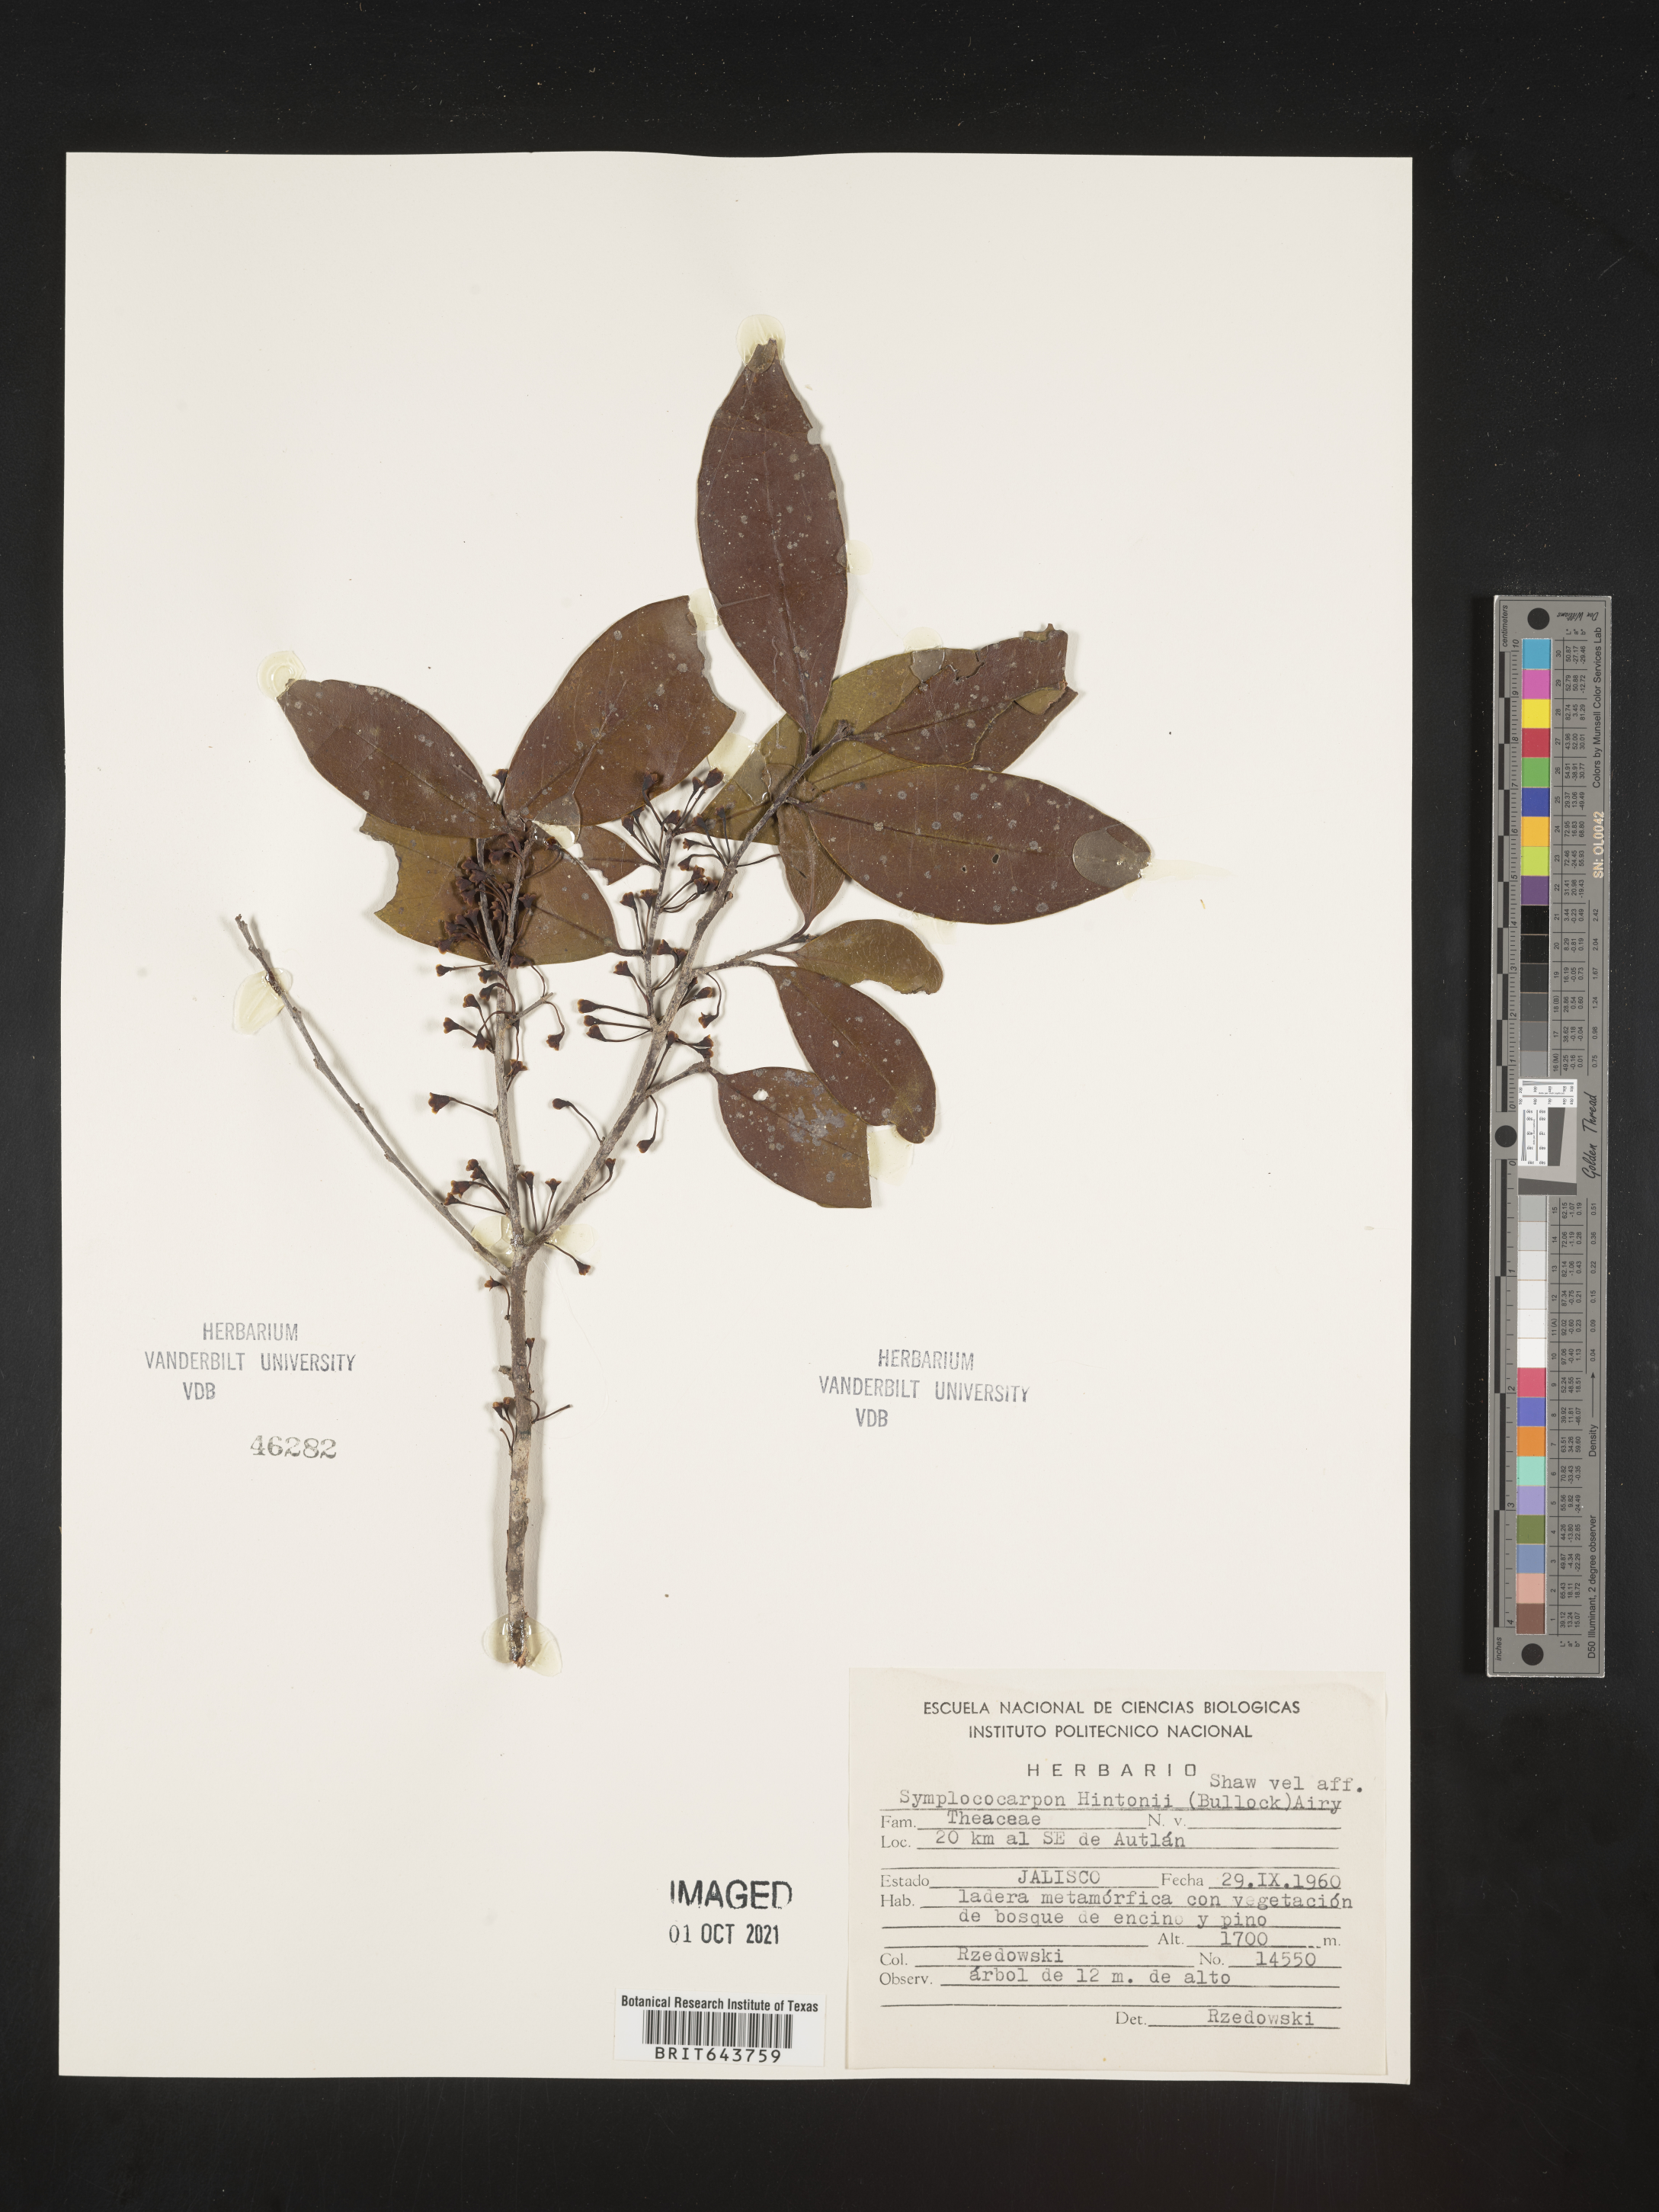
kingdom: Plantae
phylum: Tracheophyta
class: Magnoliopsida
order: Ericales
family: Pentaphylacaceae
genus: Symplococarpon
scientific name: Symplococarpon
